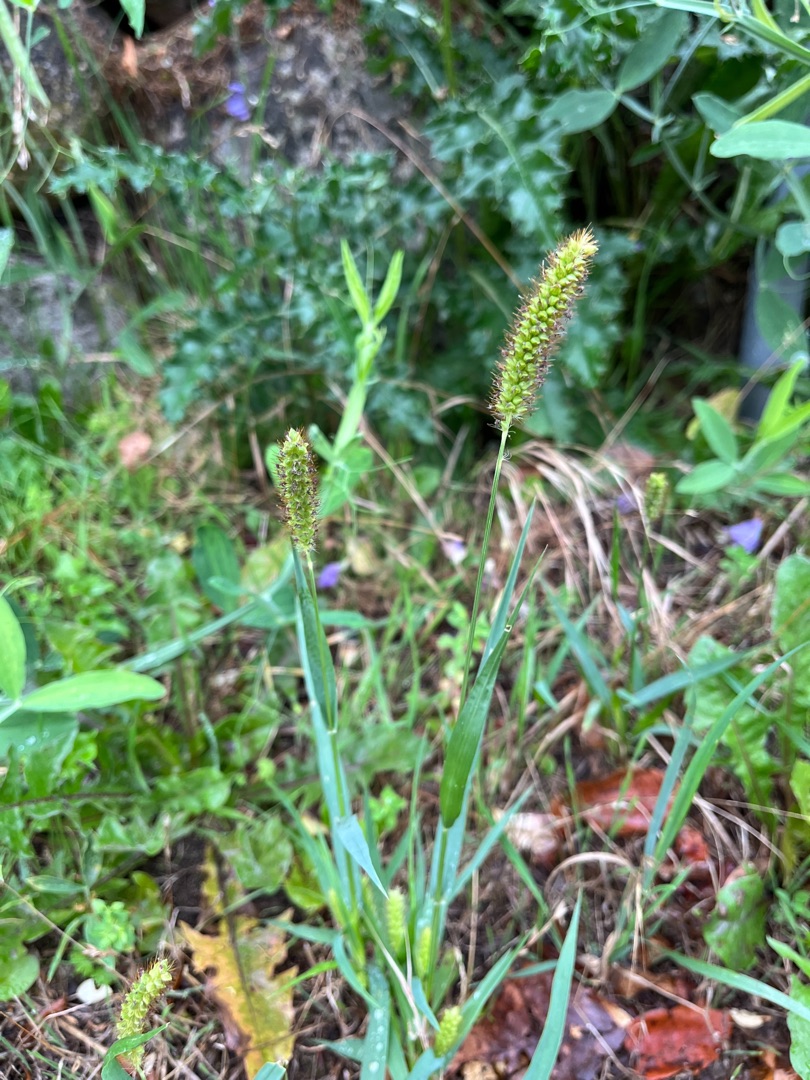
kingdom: Plantae
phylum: Tracheophyta
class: Liliopsida
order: Poales
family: Poaceae
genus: Setaria
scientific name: Setaria pumila
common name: Blågrøn skærmaks
